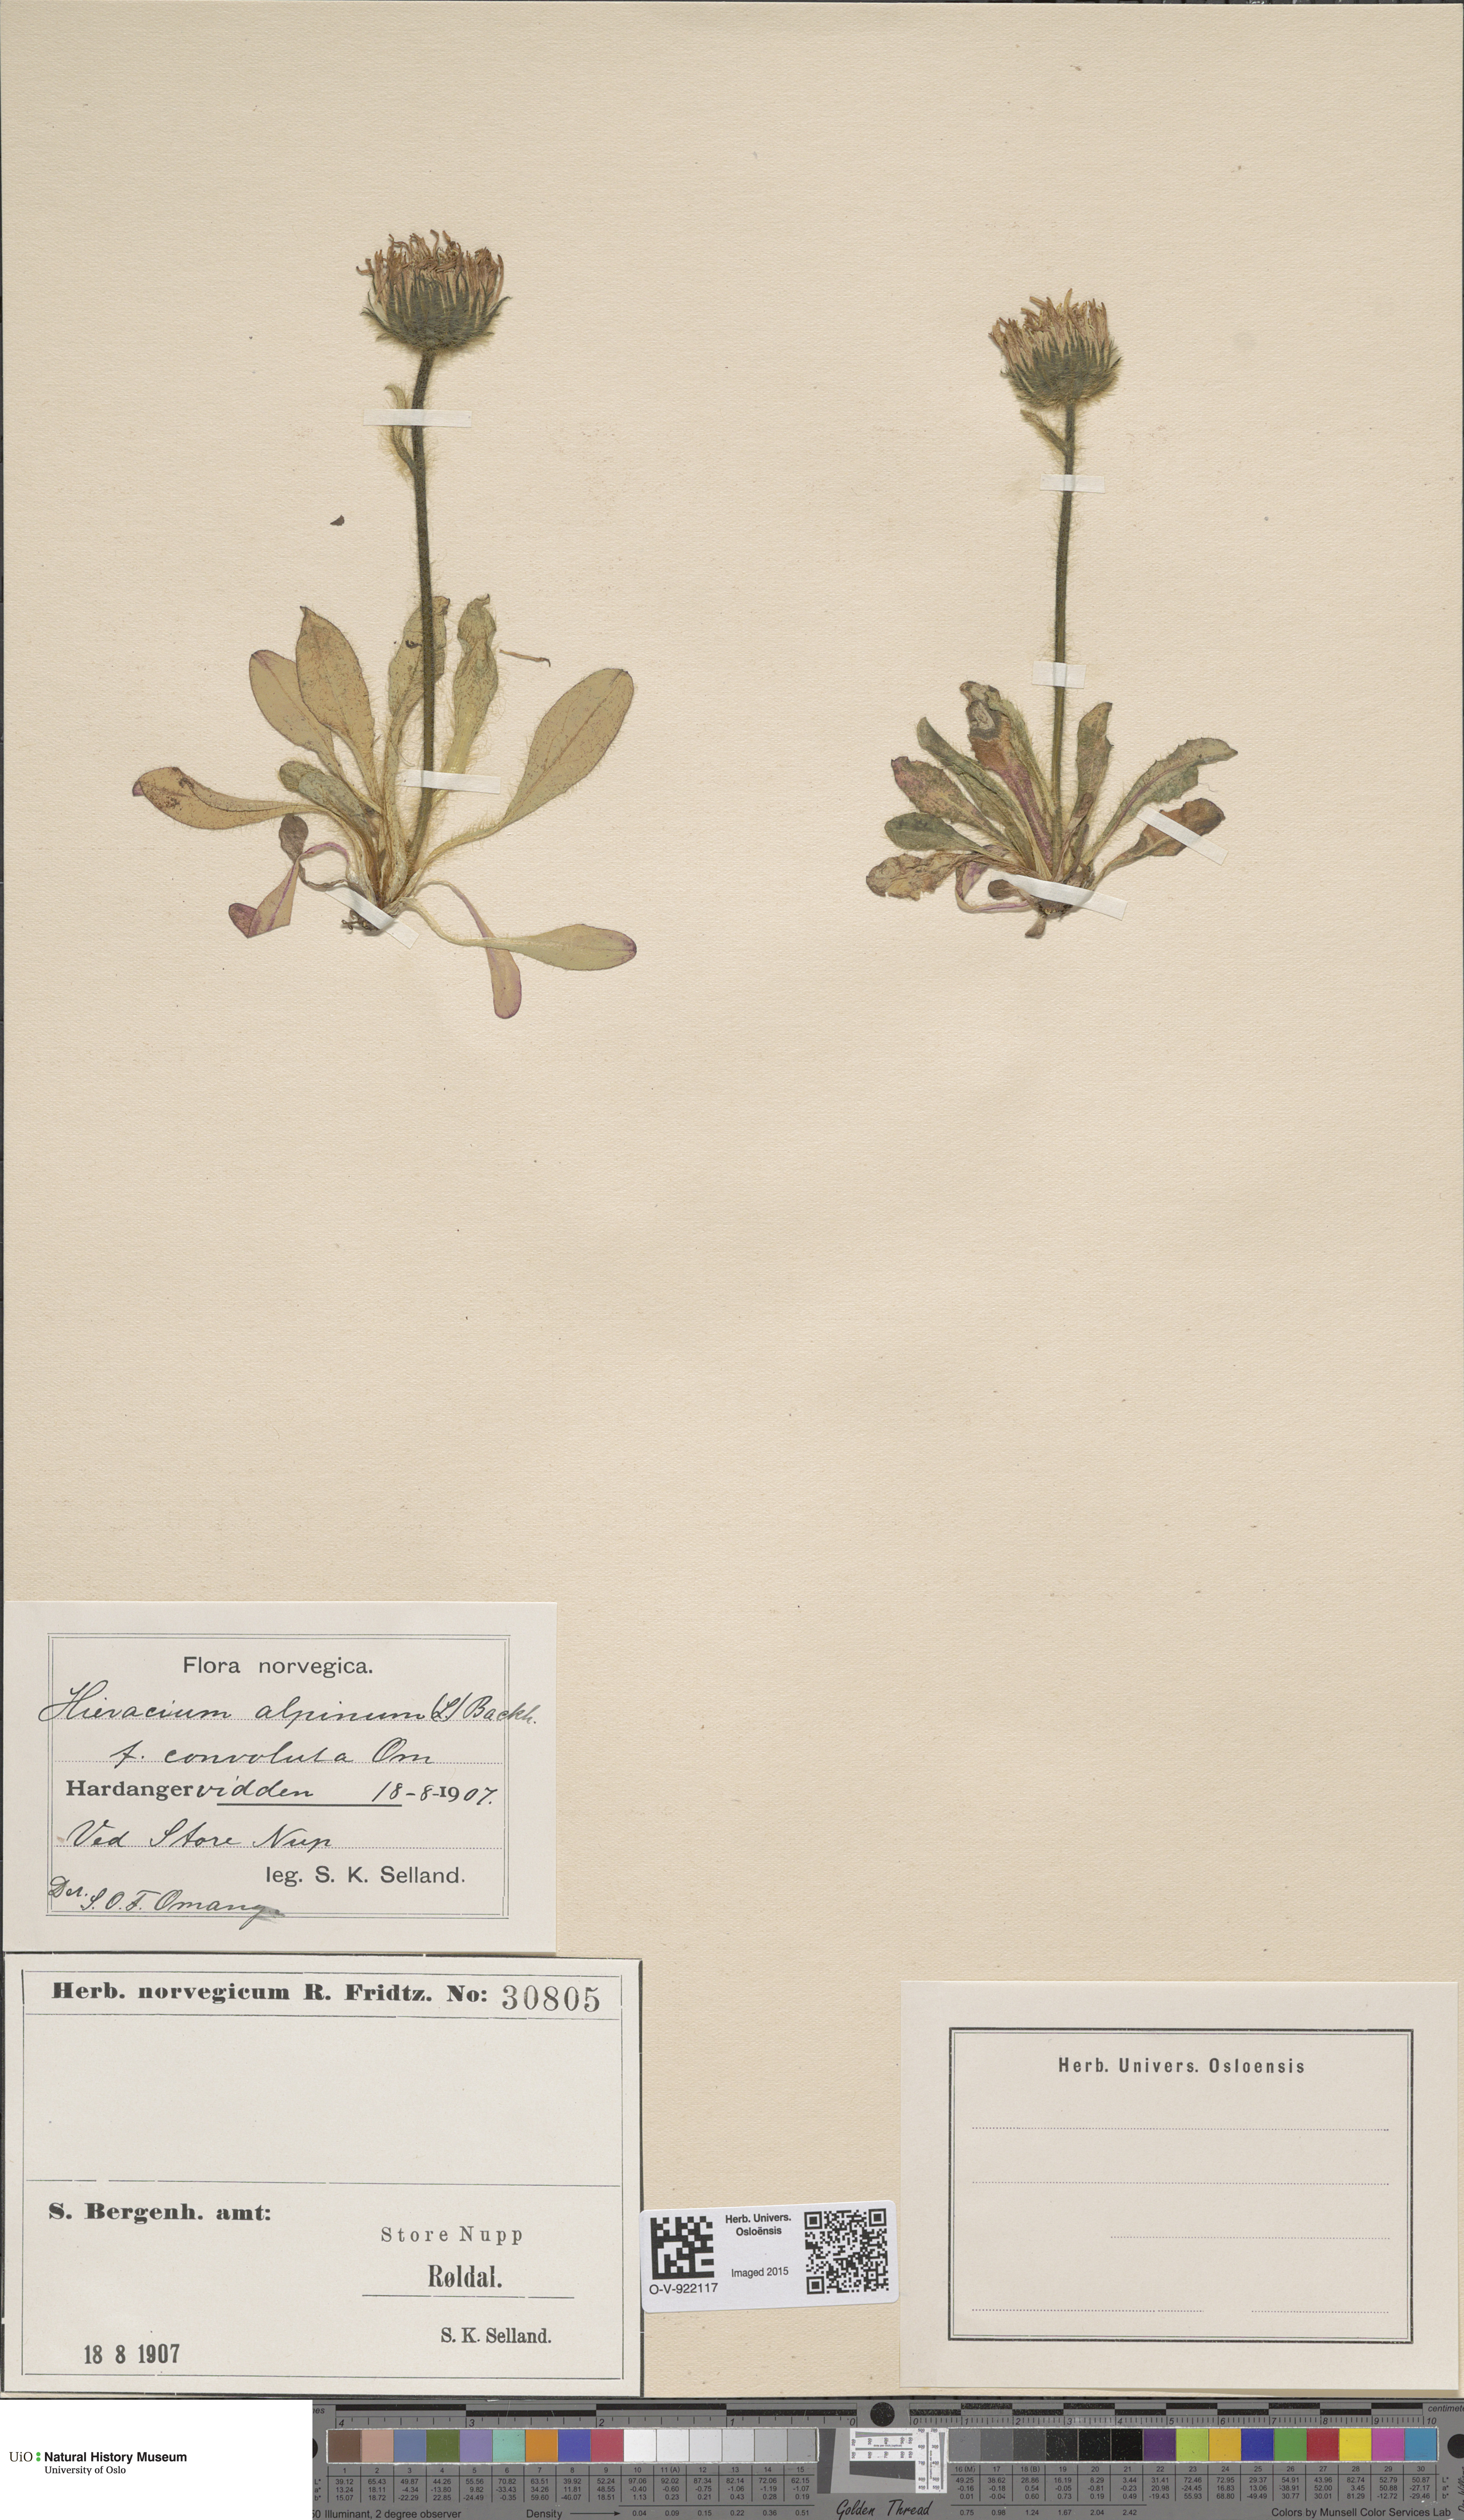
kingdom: Plantae
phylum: Tracheophyta
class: Magnoliopsida
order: Asterales
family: Asteraceae
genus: Hieracium
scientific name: Hieracium alpinum
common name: Alpine hawkweed
